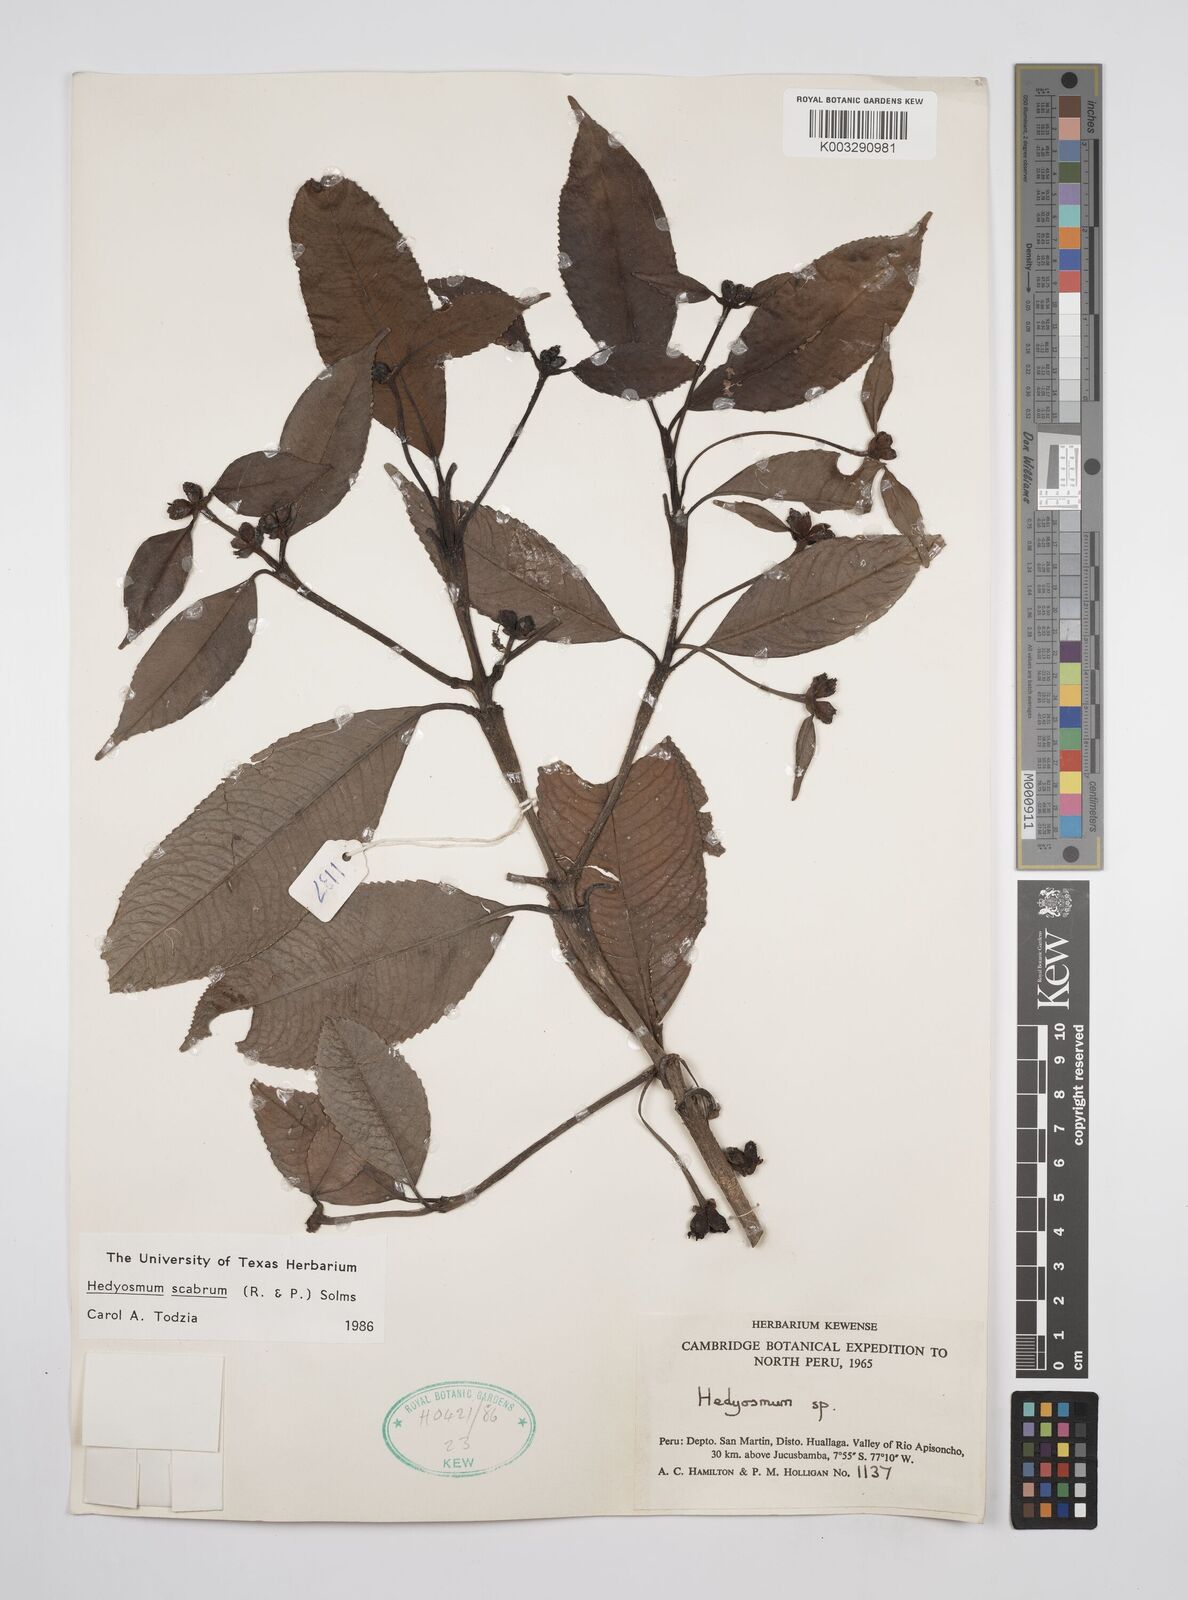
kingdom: Plantae
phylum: Tracheophyta
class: Magnoliopsida
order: Chloranthales
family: Chloranthaceae
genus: Hedyosmum
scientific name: Hedyosmum scabrum
